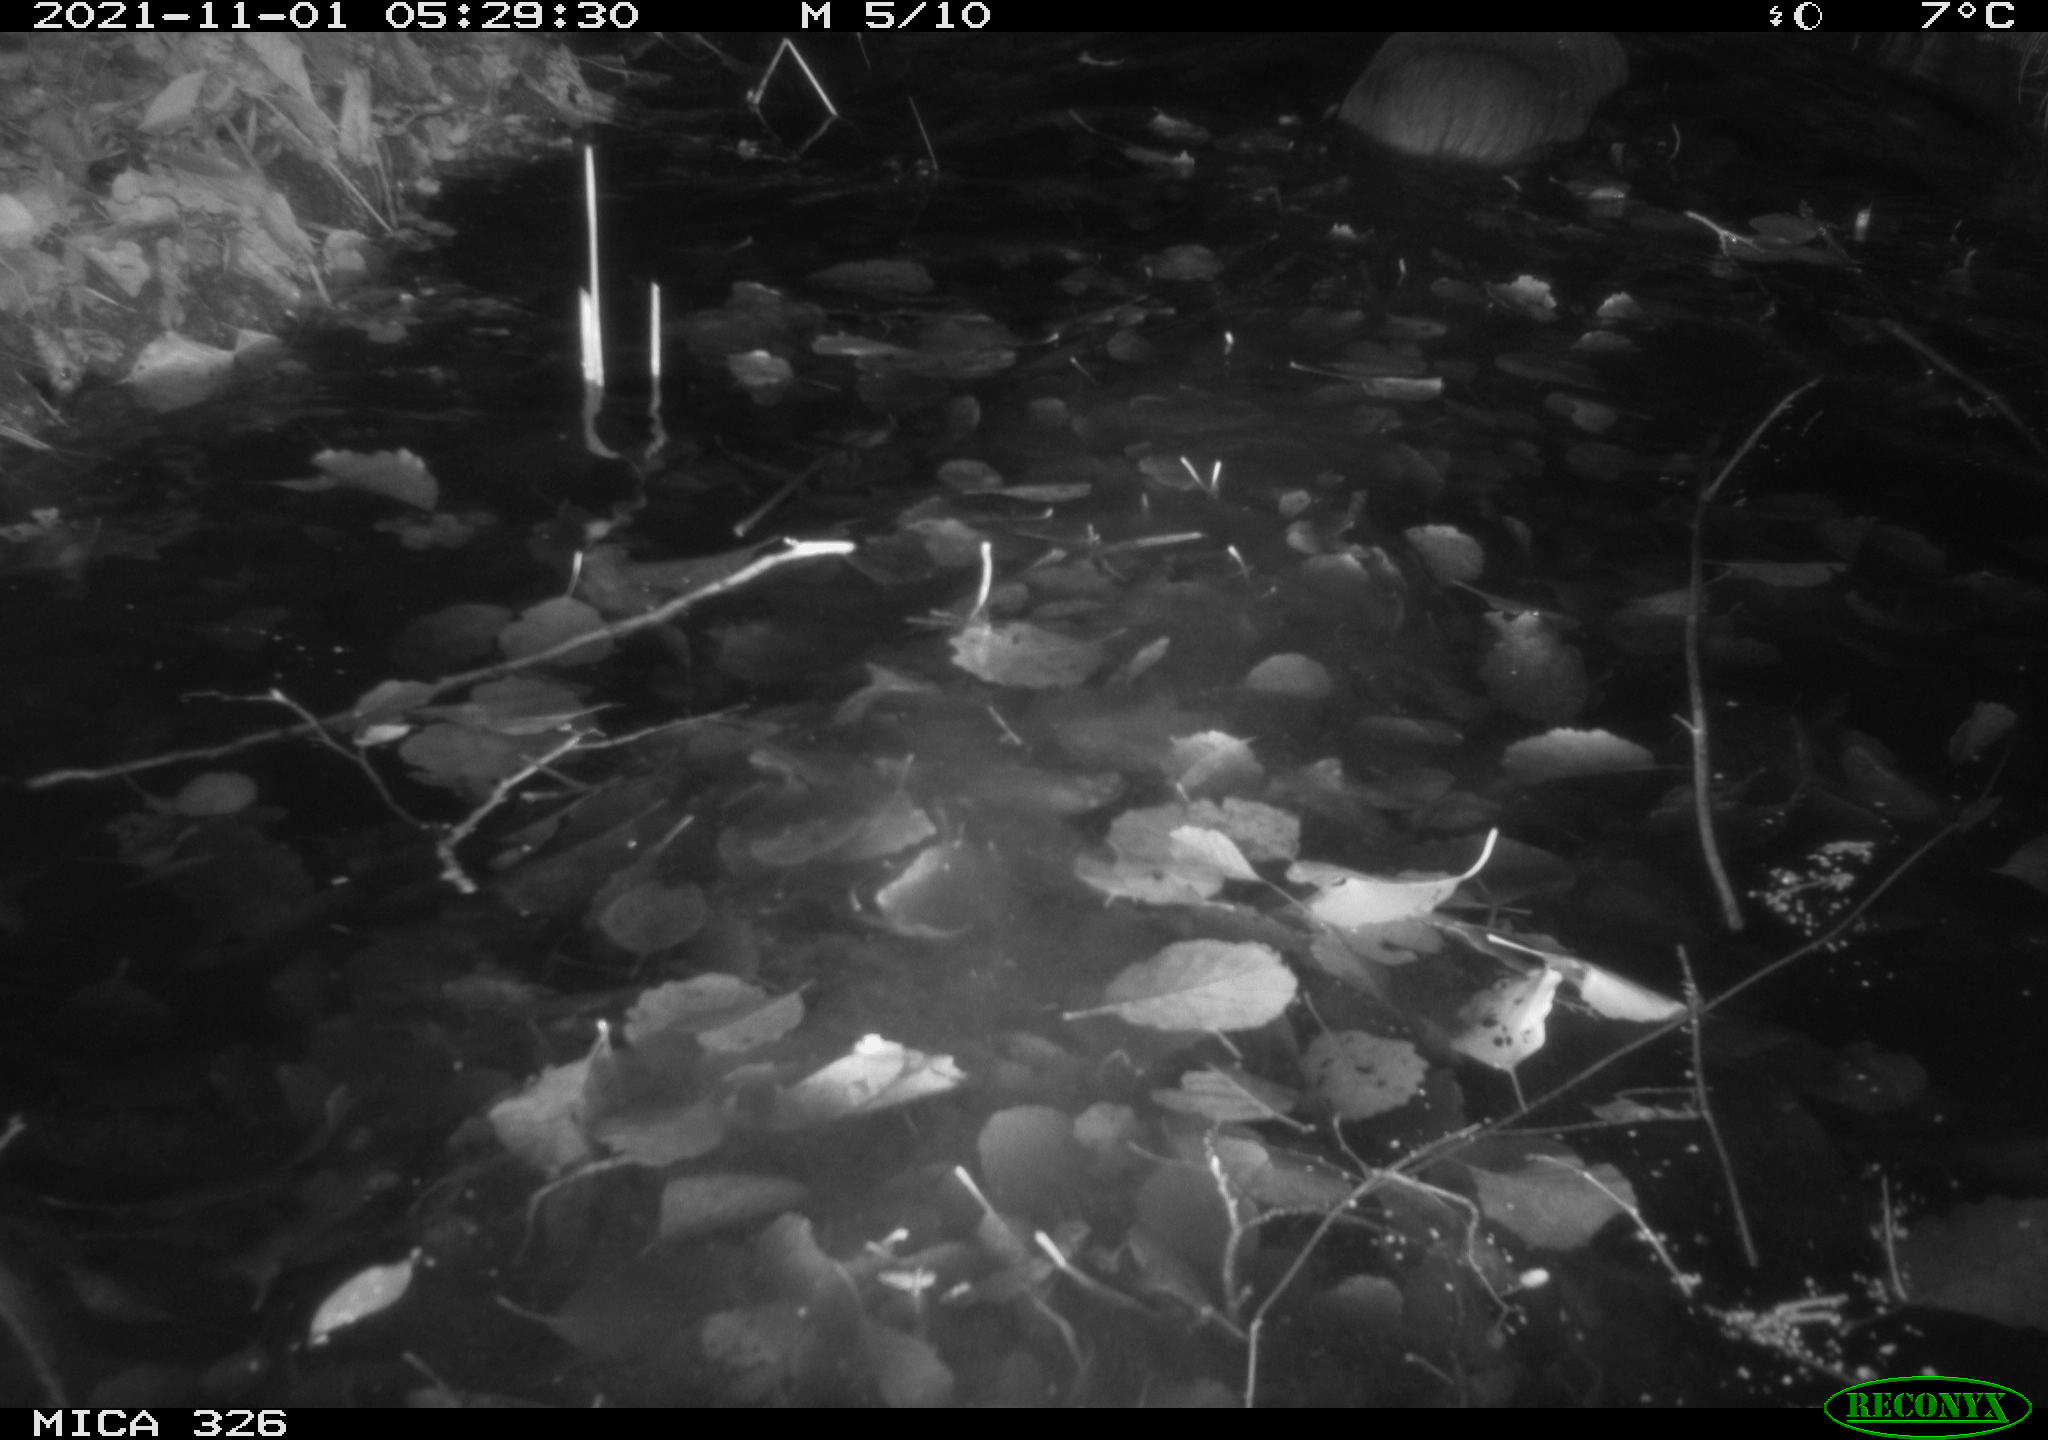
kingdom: Animalia
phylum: Chordata
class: Mammalia
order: Rodentia
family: Myocastoridae
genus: Myocastor
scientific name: Myocastor coypus
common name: Coypu
